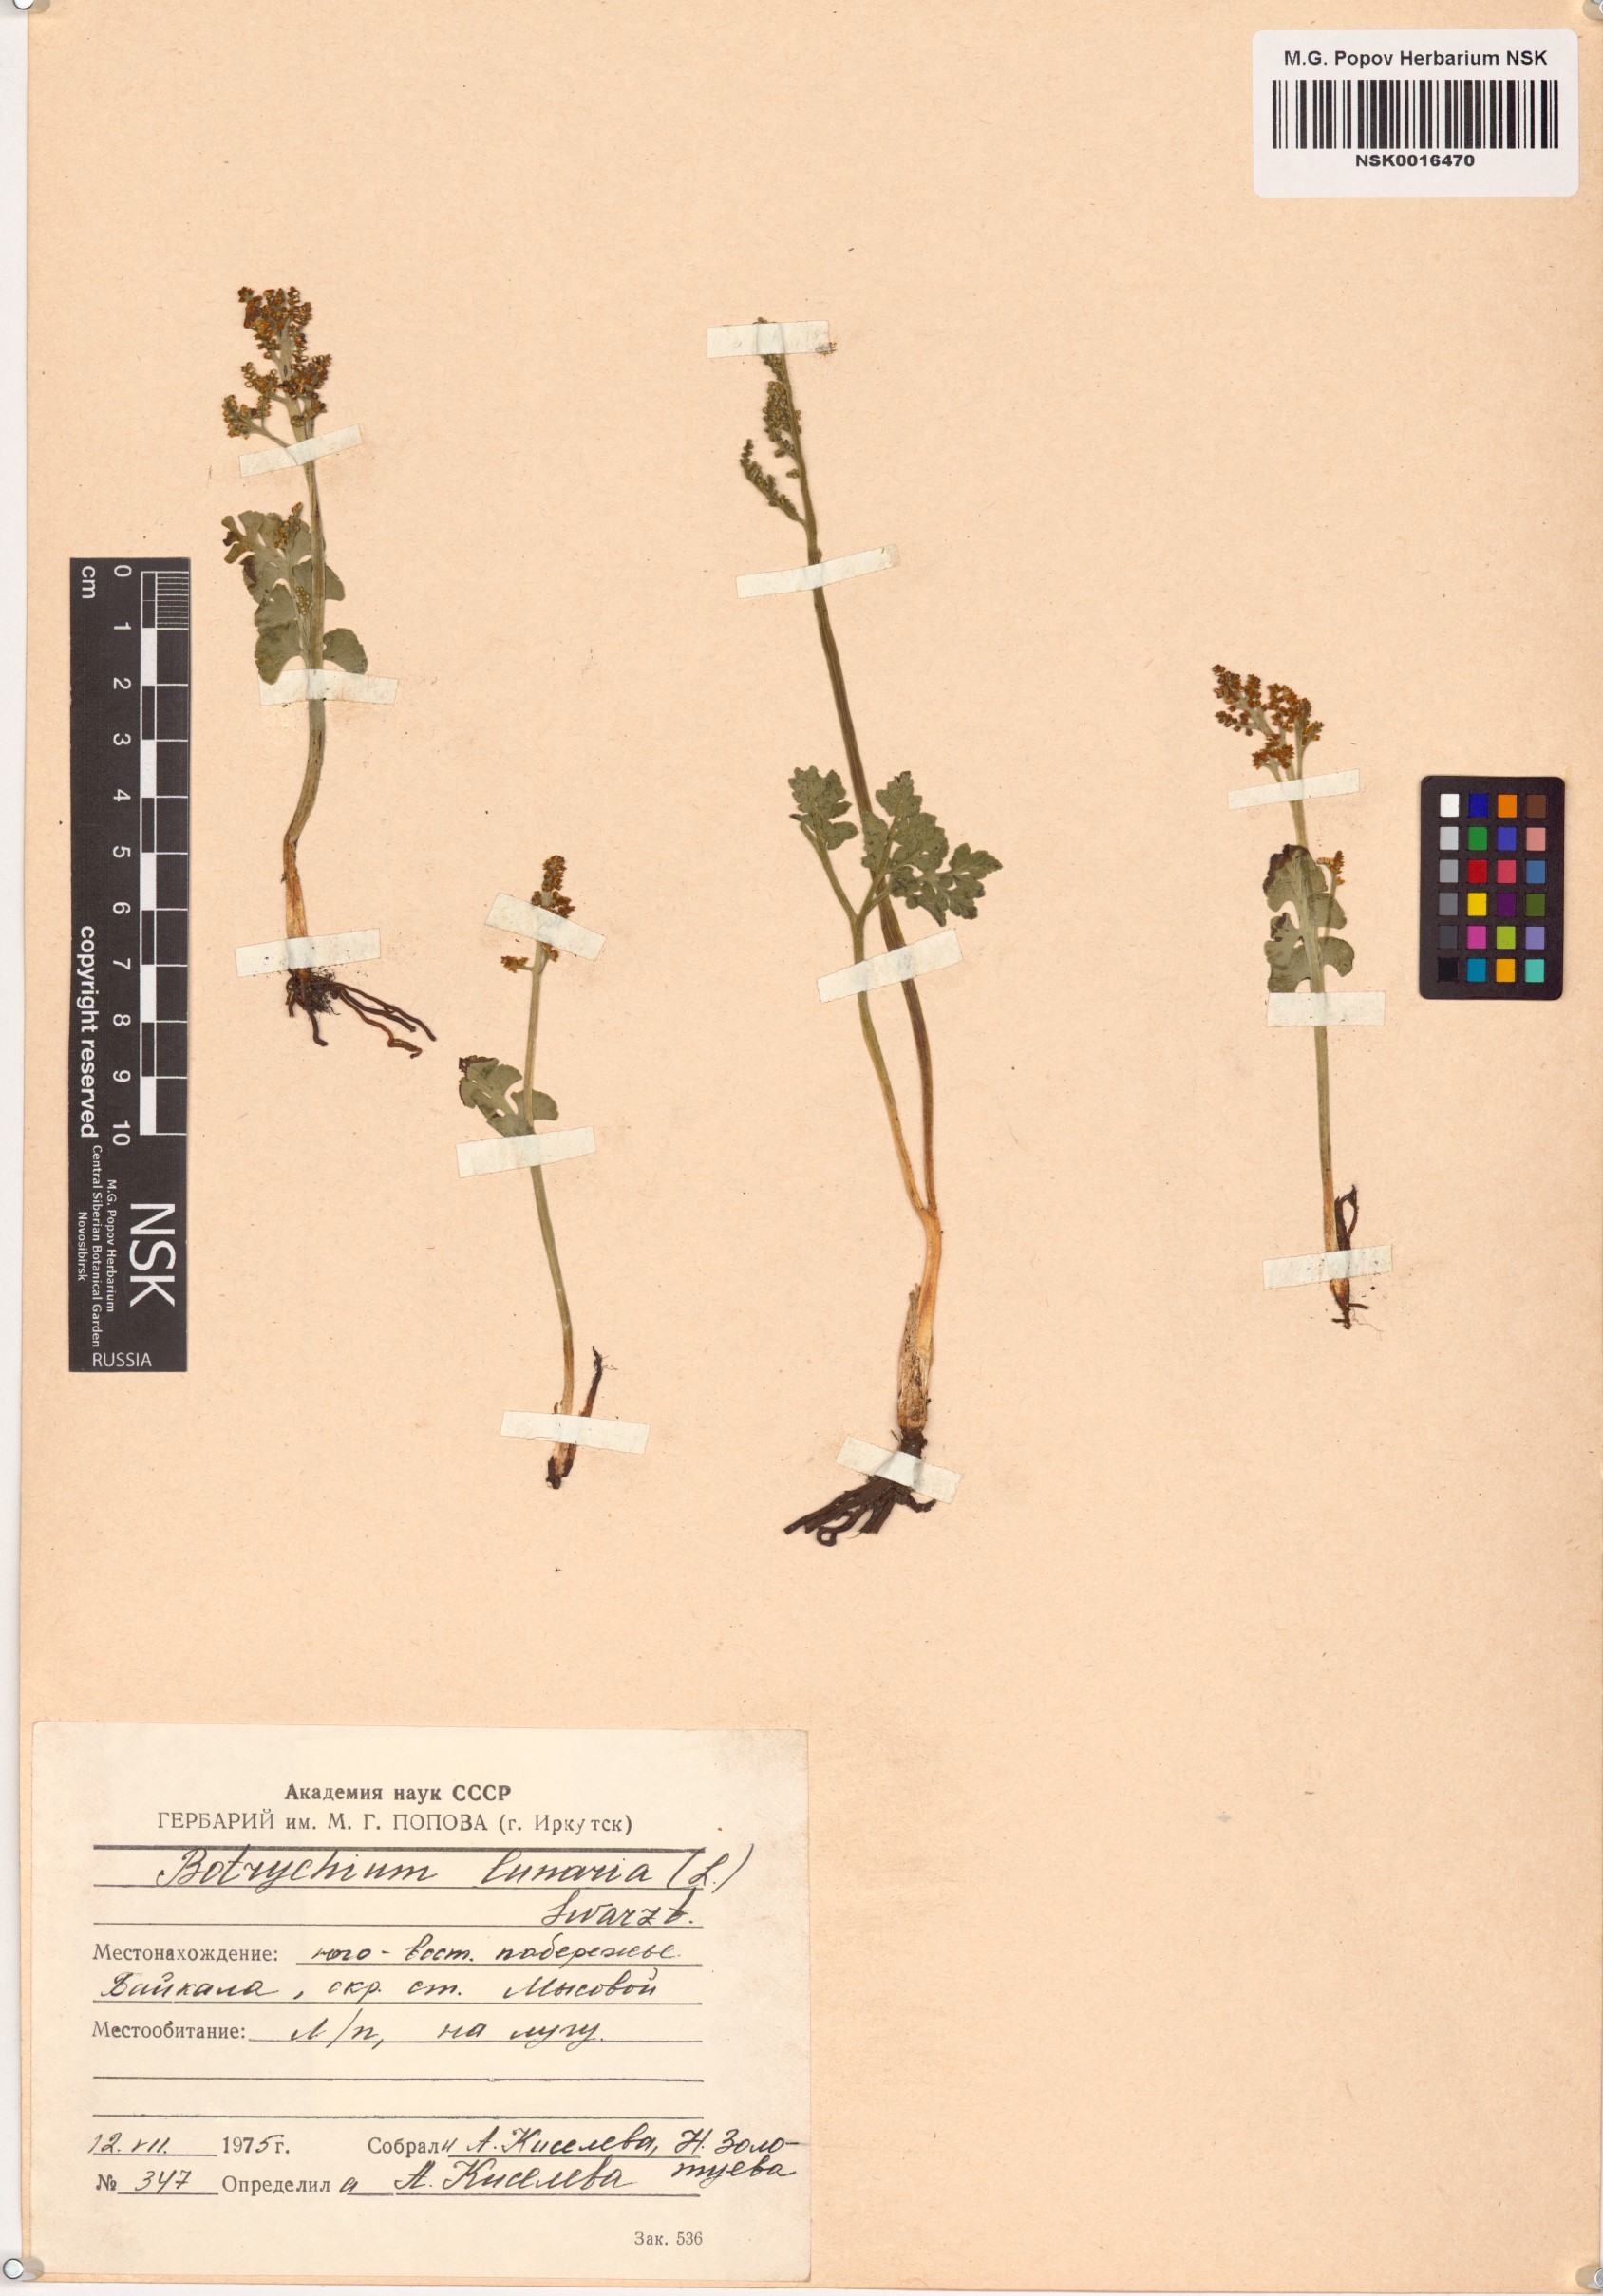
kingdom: Plantae
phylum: Tracheophyta
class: Polypodiopsida
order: Ophioglossales
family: Ophioglossaceae
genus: Botrychium
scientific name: Botrychium lunaria
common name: Moonwort
